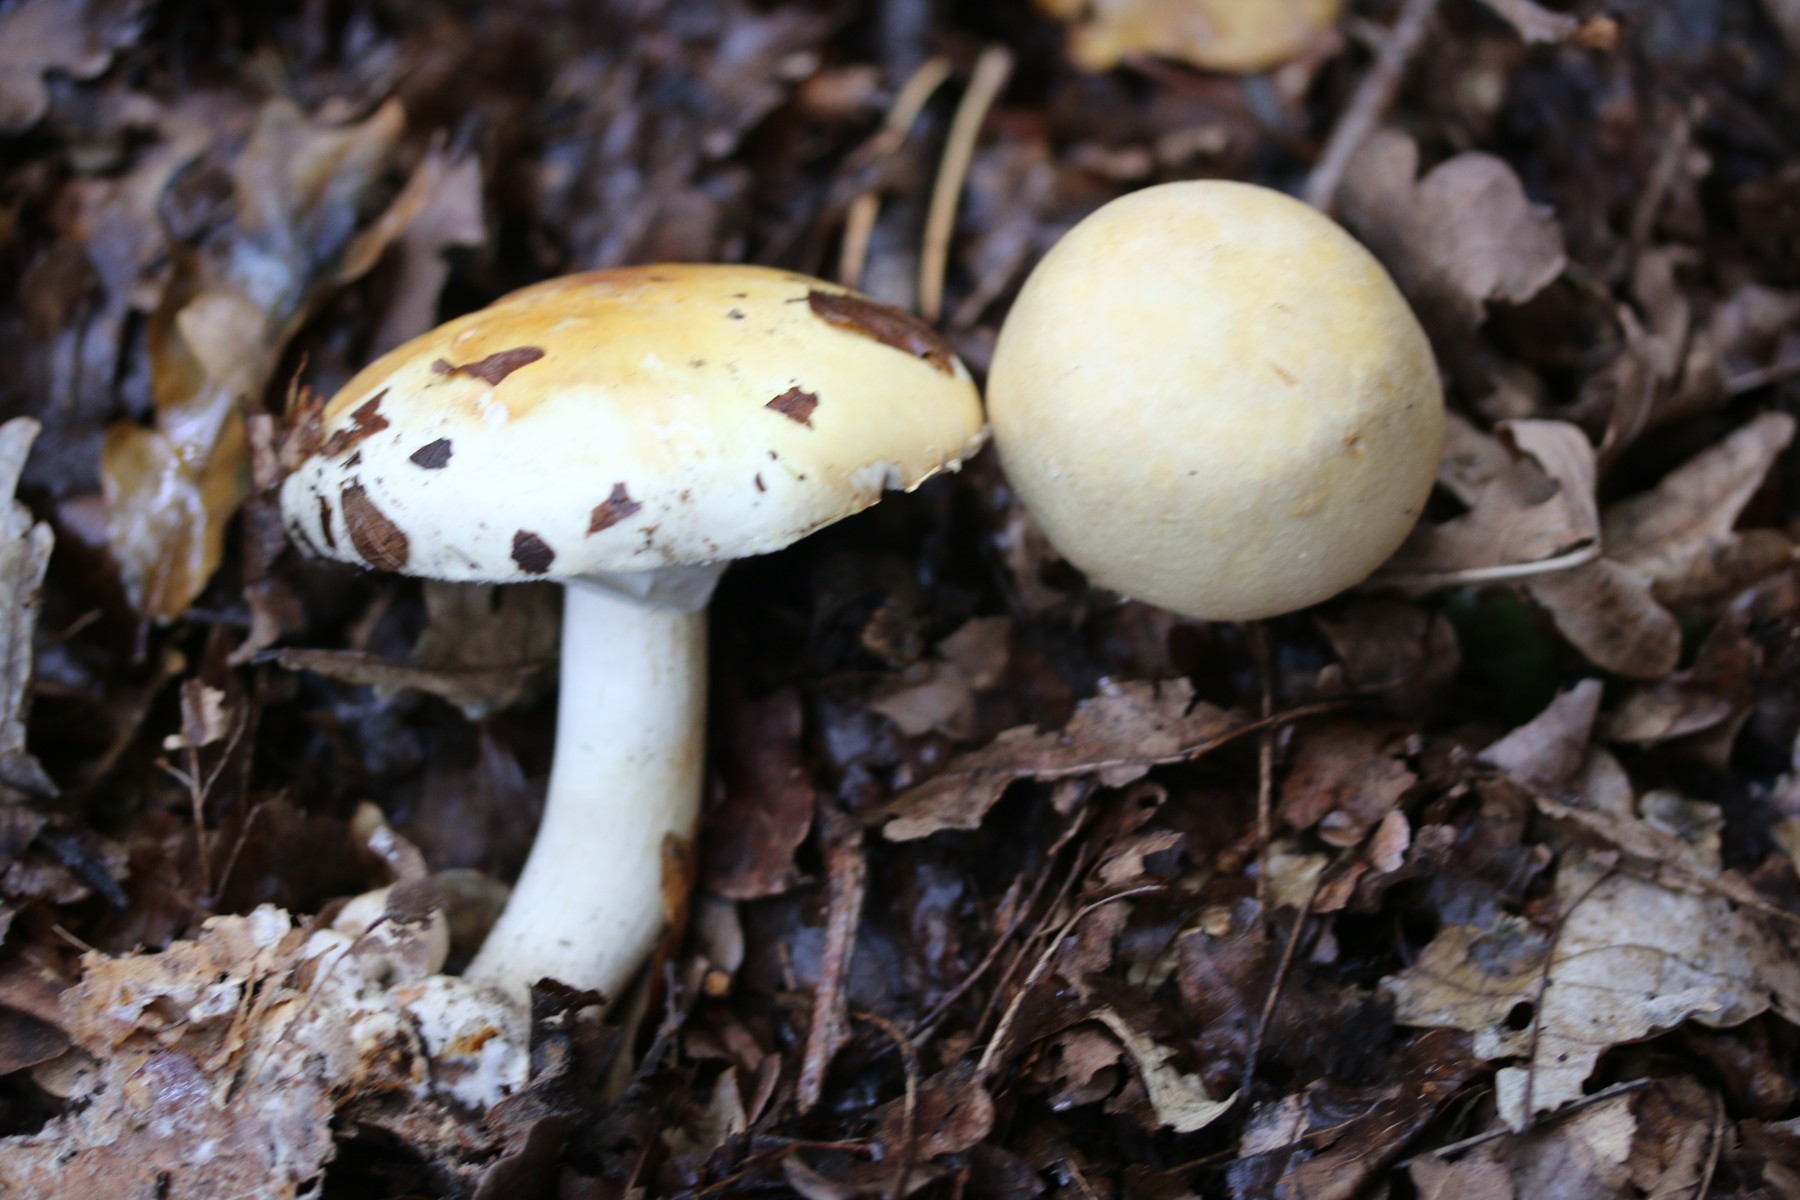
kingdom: Fungi
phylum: Basidiomycota
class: Agaricomycetes
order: Agaricales
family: Agaricaceae
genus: Agaricus
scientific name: Agaricus sylvicola
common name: gulhvid champignon
